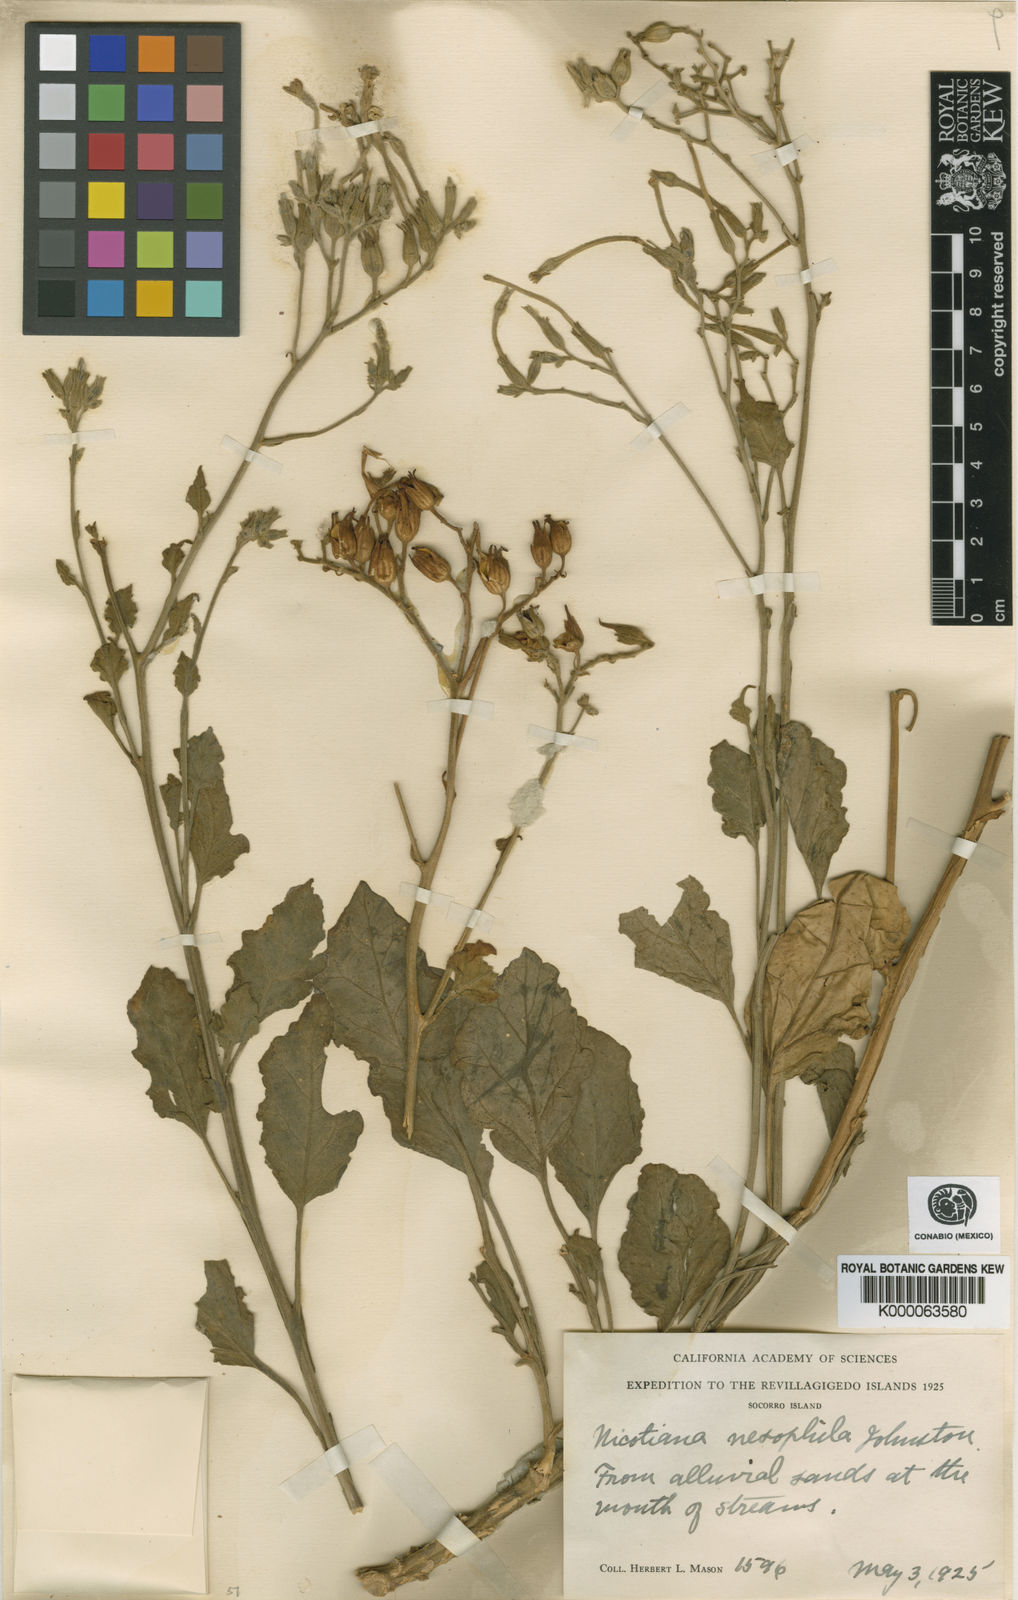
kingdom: Plantae
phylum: Tracheophyta
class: Magnoliopsida
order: Solanales
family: Solanaceae
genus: Nicotiana
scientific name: Nicotiana stocktonii
